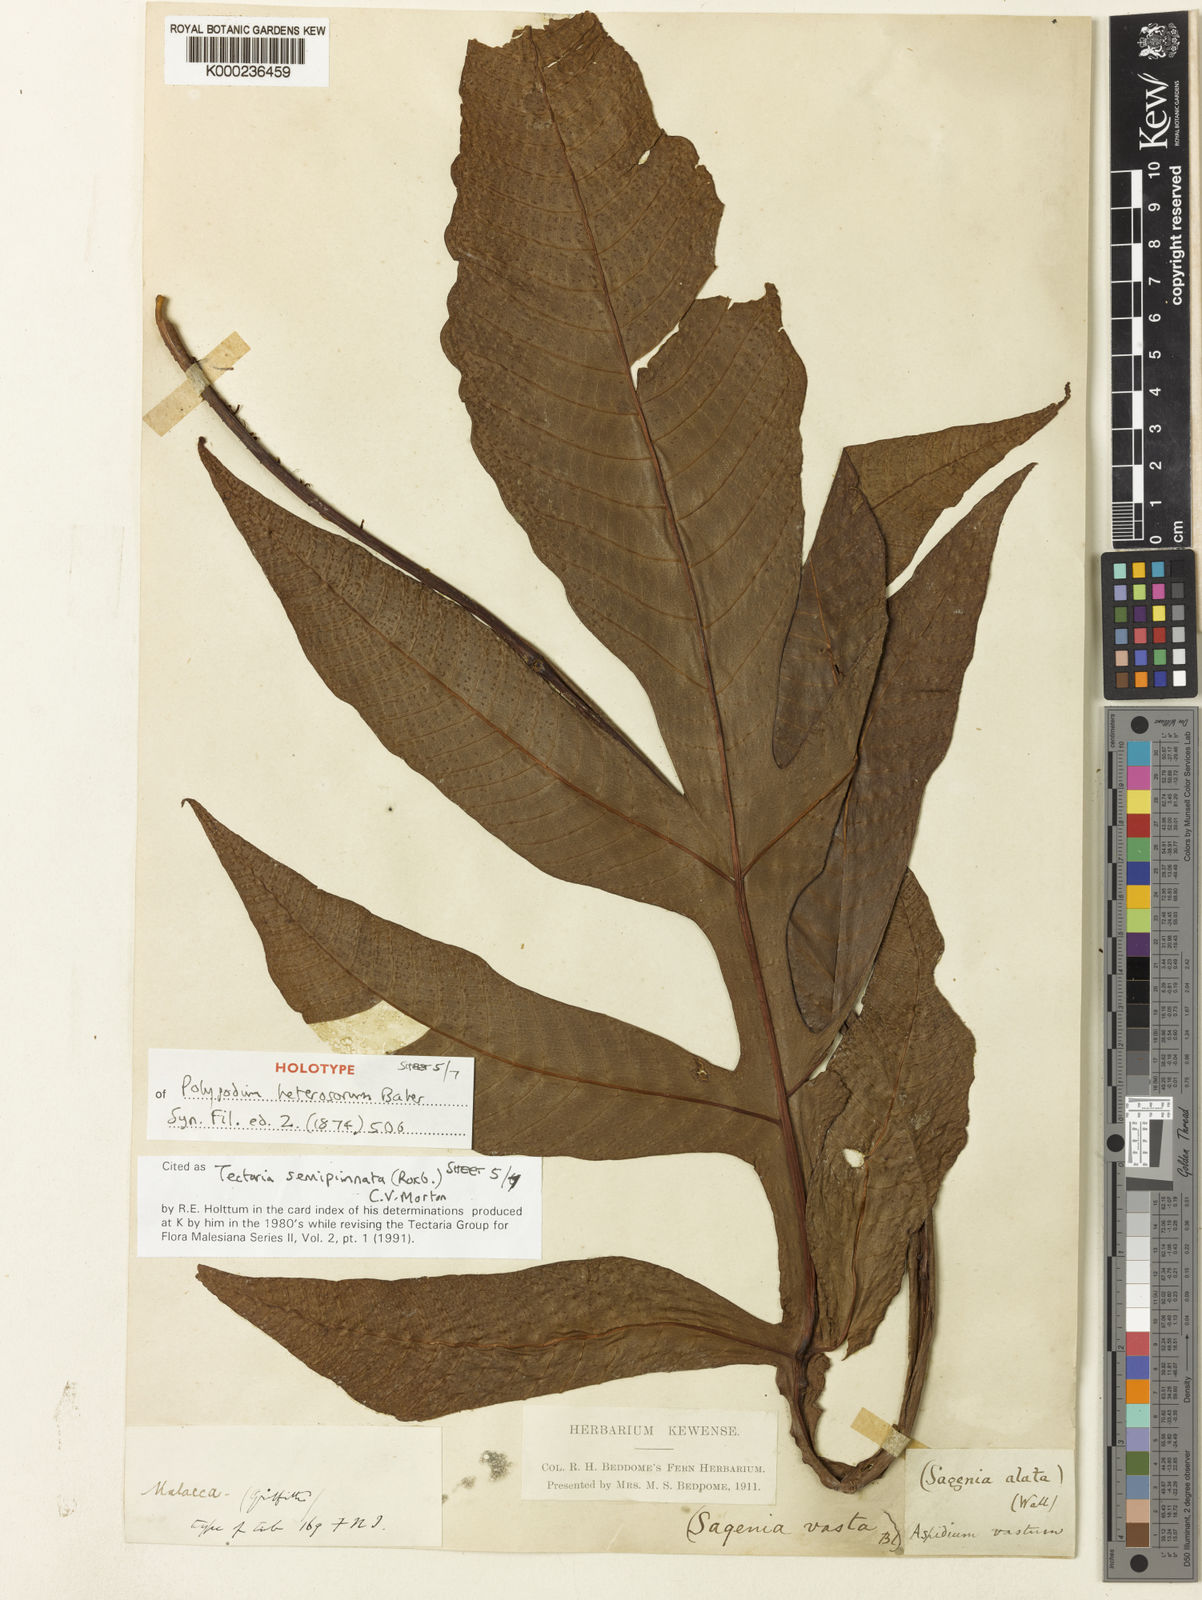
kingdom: Plantae
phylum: Tracheophyta
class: Polypodiopsida
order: Polypodiales
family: Tectariaceae
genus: Tectaria
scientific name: Tectaria semipinnata
